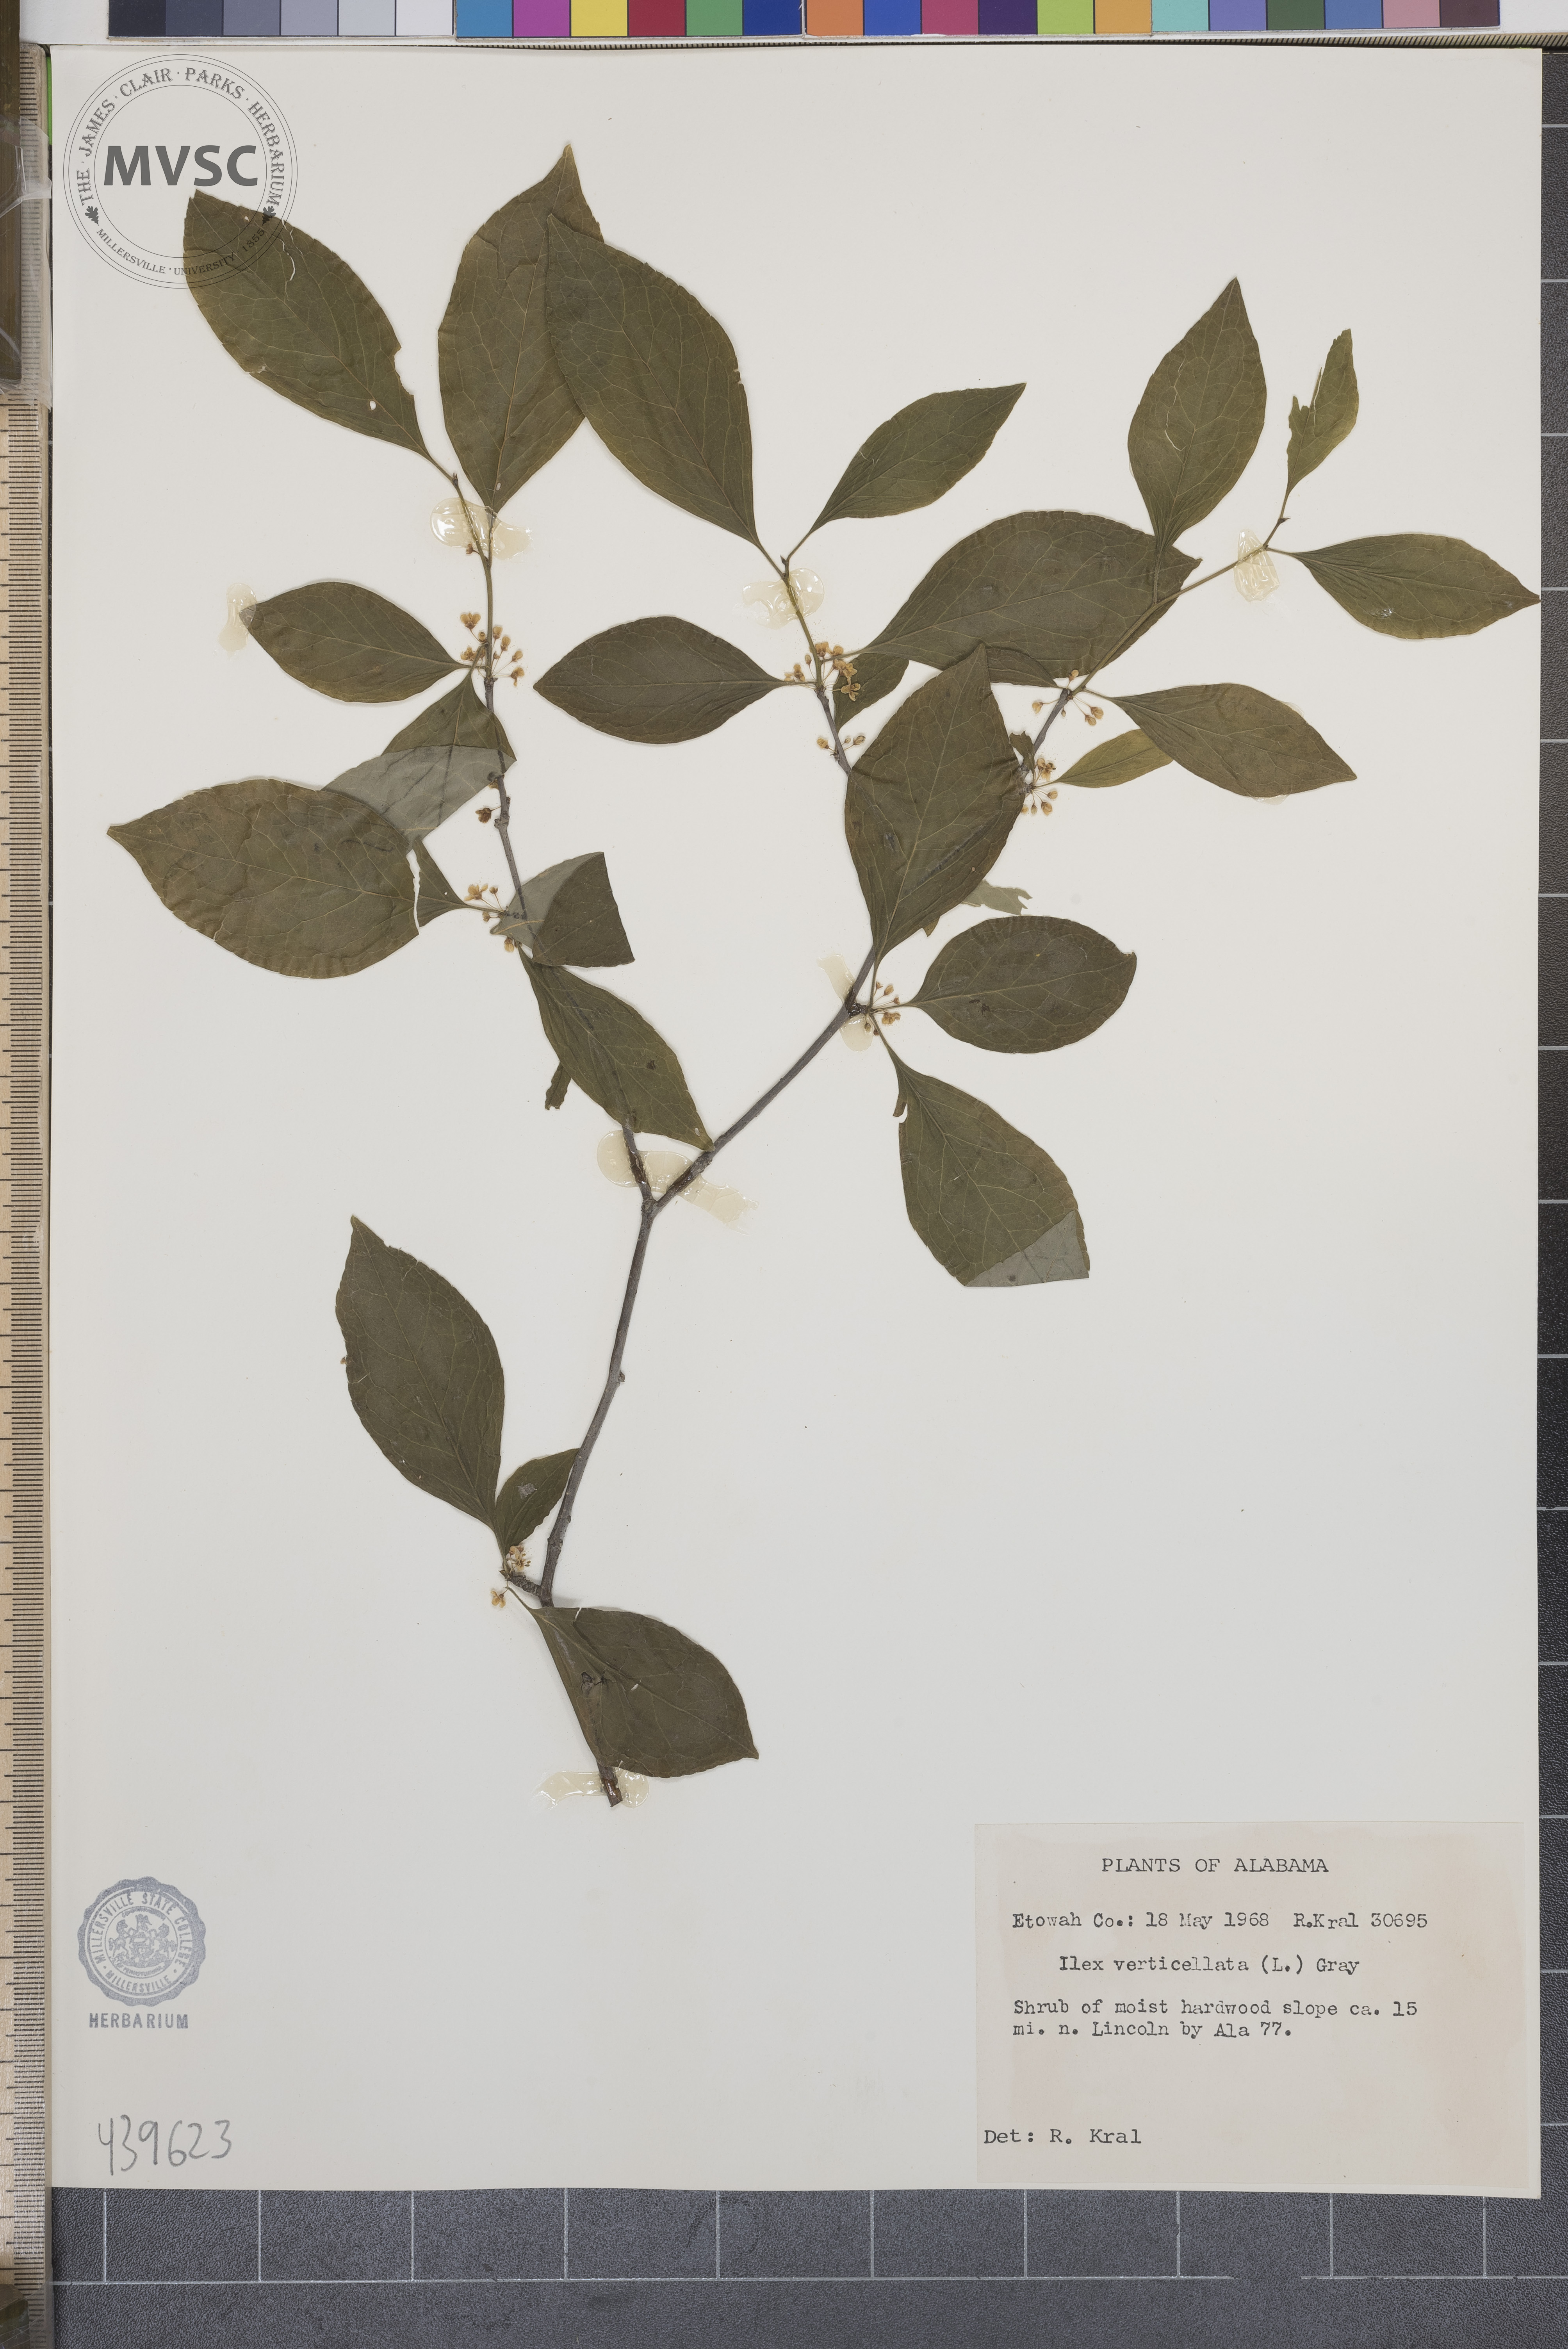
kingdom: Plantae
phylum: Tracheophyta
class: Magnoliopsida
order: Aquifoliales
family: Aquifoliaceae
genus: Ilex
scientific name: Ilex verticillata
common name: Virginia winterberry
